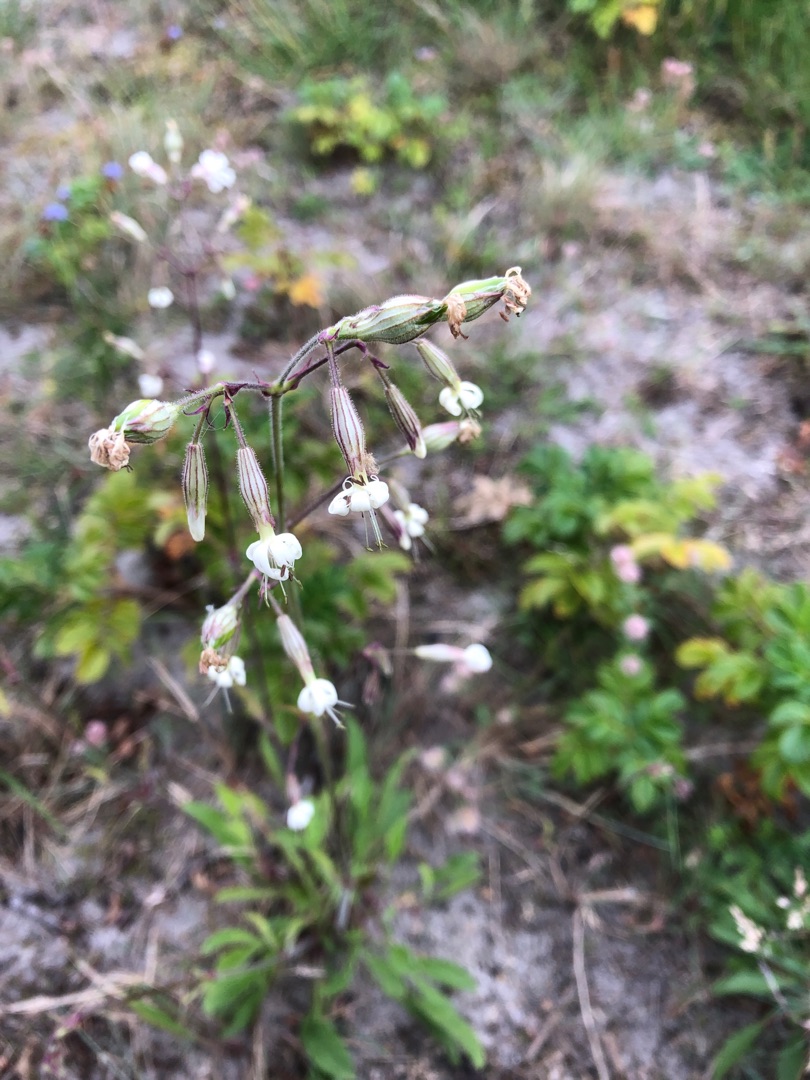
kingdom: Plantae
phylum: Tracheophyta
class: Magnoliopsida
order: Caryophyllales
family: Caryophyllaceae
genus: Silene
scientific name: Silene nutans
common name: Nikkende limurt
